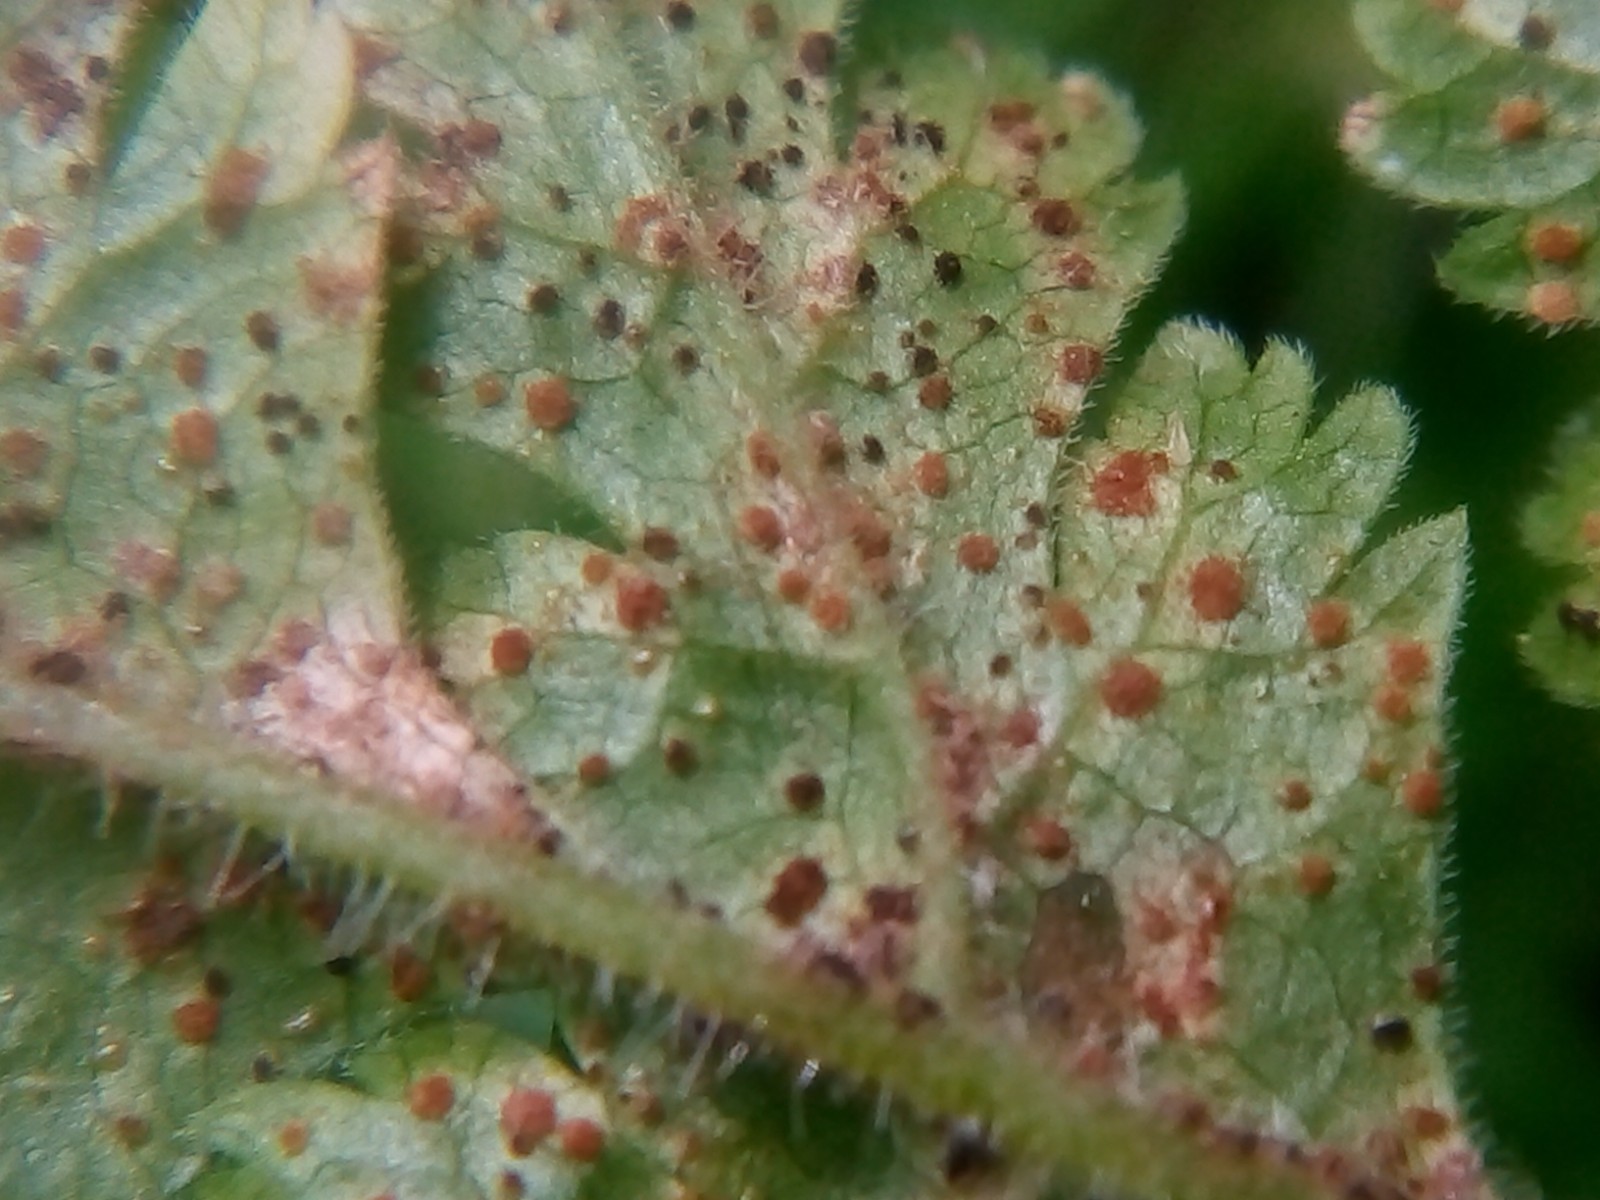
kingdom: Fungi
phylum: Basidiomycota
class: Pucciniomycetes
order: Pucciniales
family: Pucciniaceae
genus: Puccinia
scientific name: Puccinia chaerophylli
